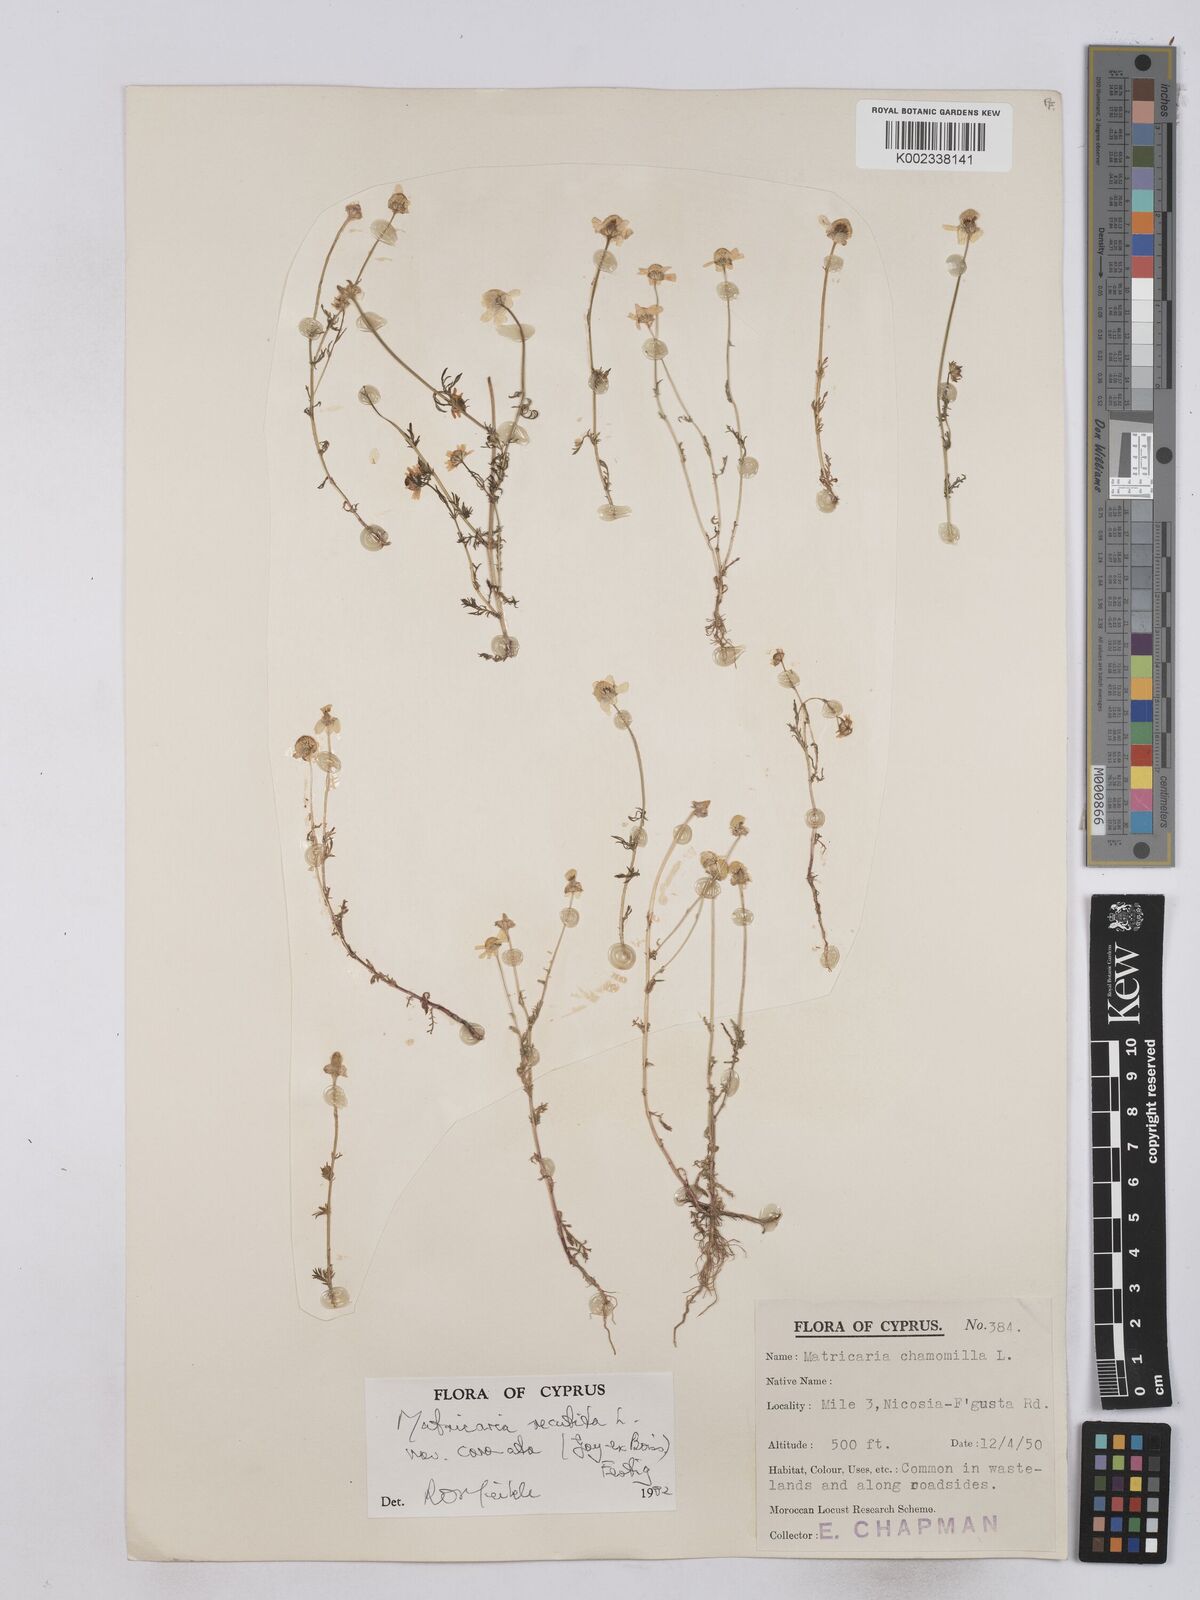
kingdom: Plantae
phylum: Tracheophyta
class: Magnoliopsida
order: Asterales
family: Asteraceae
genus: Matricaria
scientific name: Matricaria chamomilla
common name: Scented mayweed
